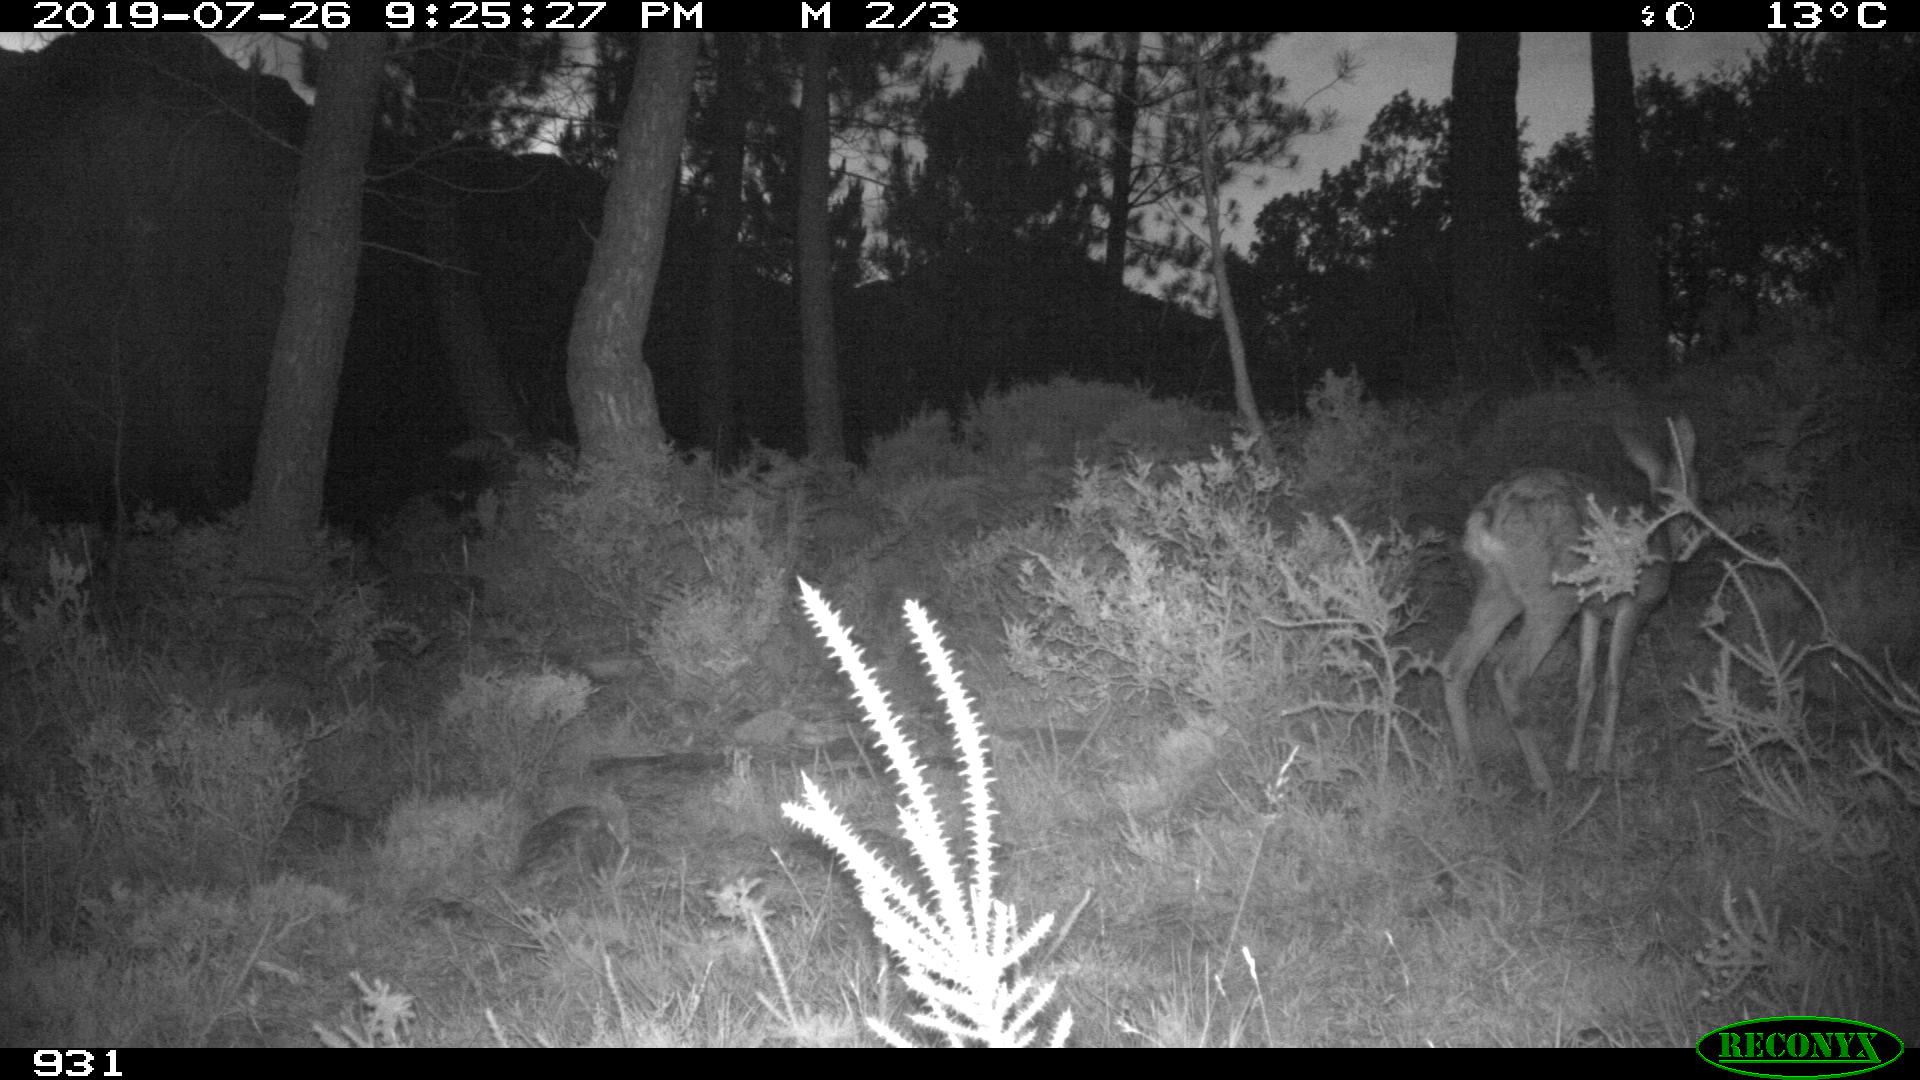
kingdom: Animalia
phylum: Chordata
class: Mammalia
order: Artiodactyla
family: Cervidae
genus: Capreolus
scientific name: Capreolus capreolus
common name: Western roe deer
